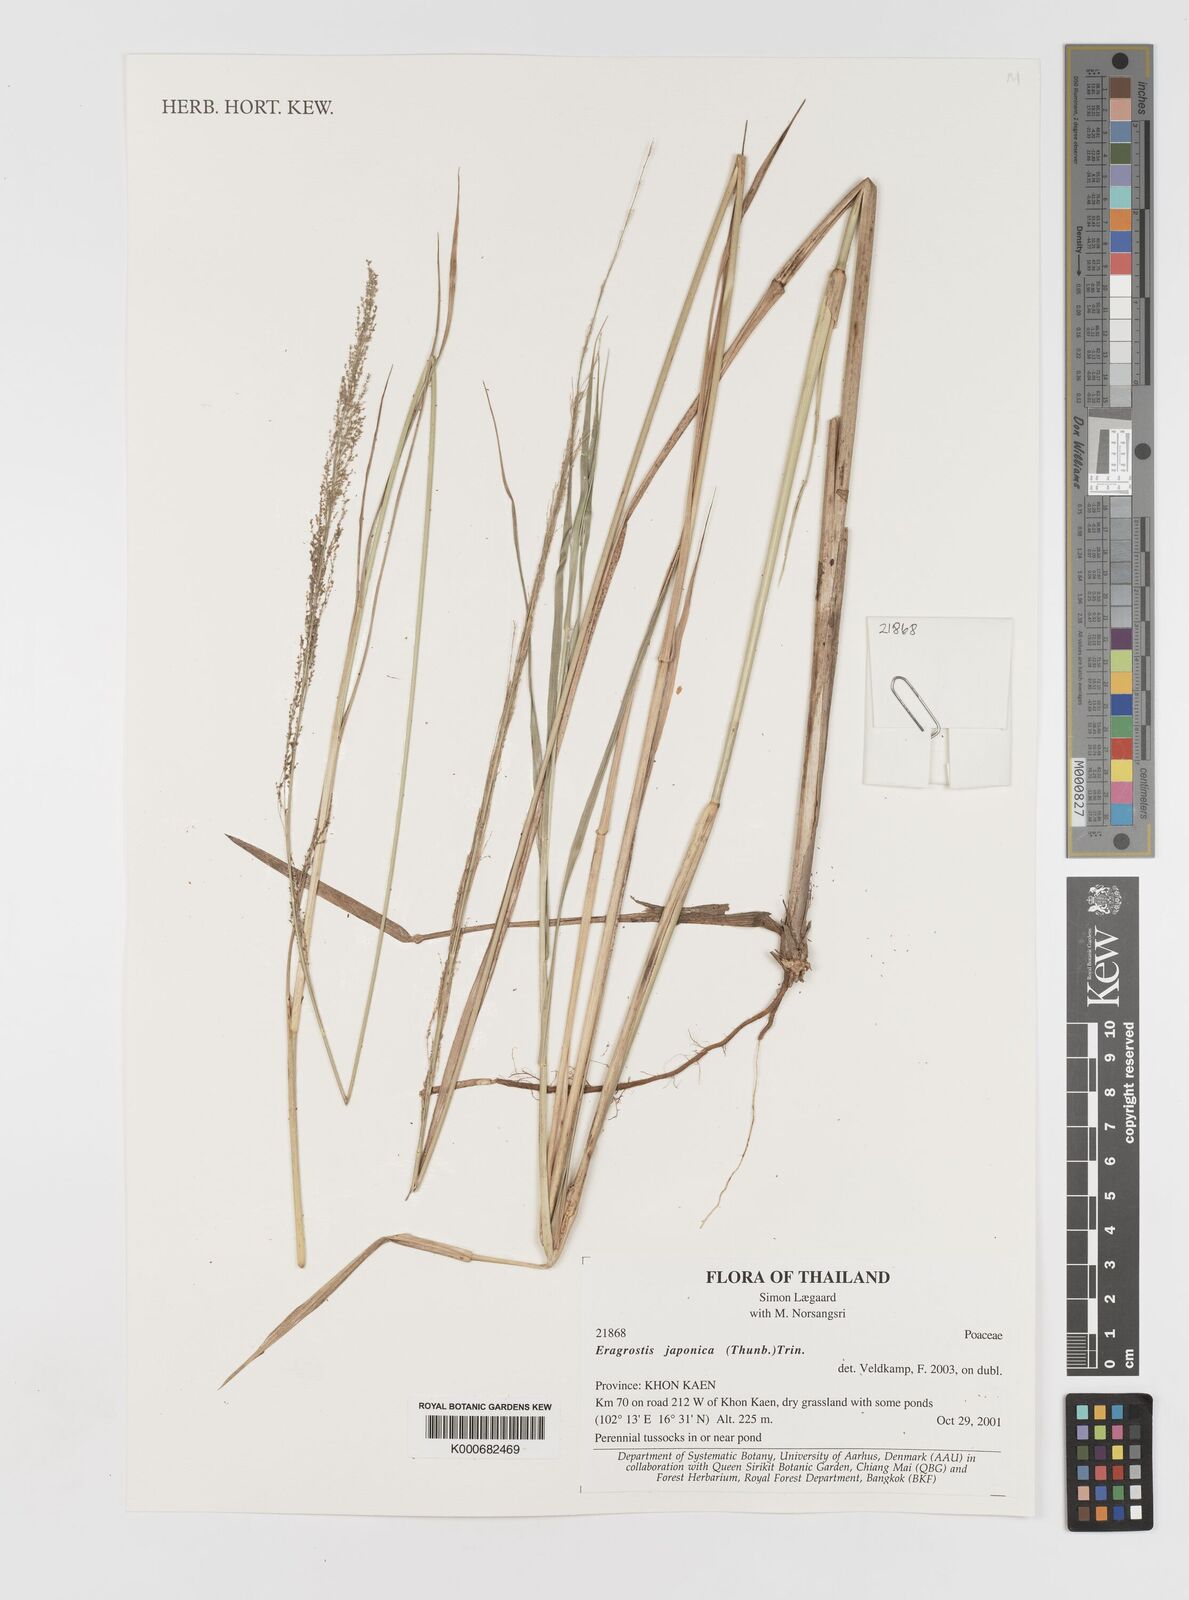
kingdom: Plantae
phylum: Tracheophyta
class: Liliopsida
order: Poales
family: Poaceae
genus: Eragrostis
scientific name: Eragrostis japonica
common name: Pond lovegrass
